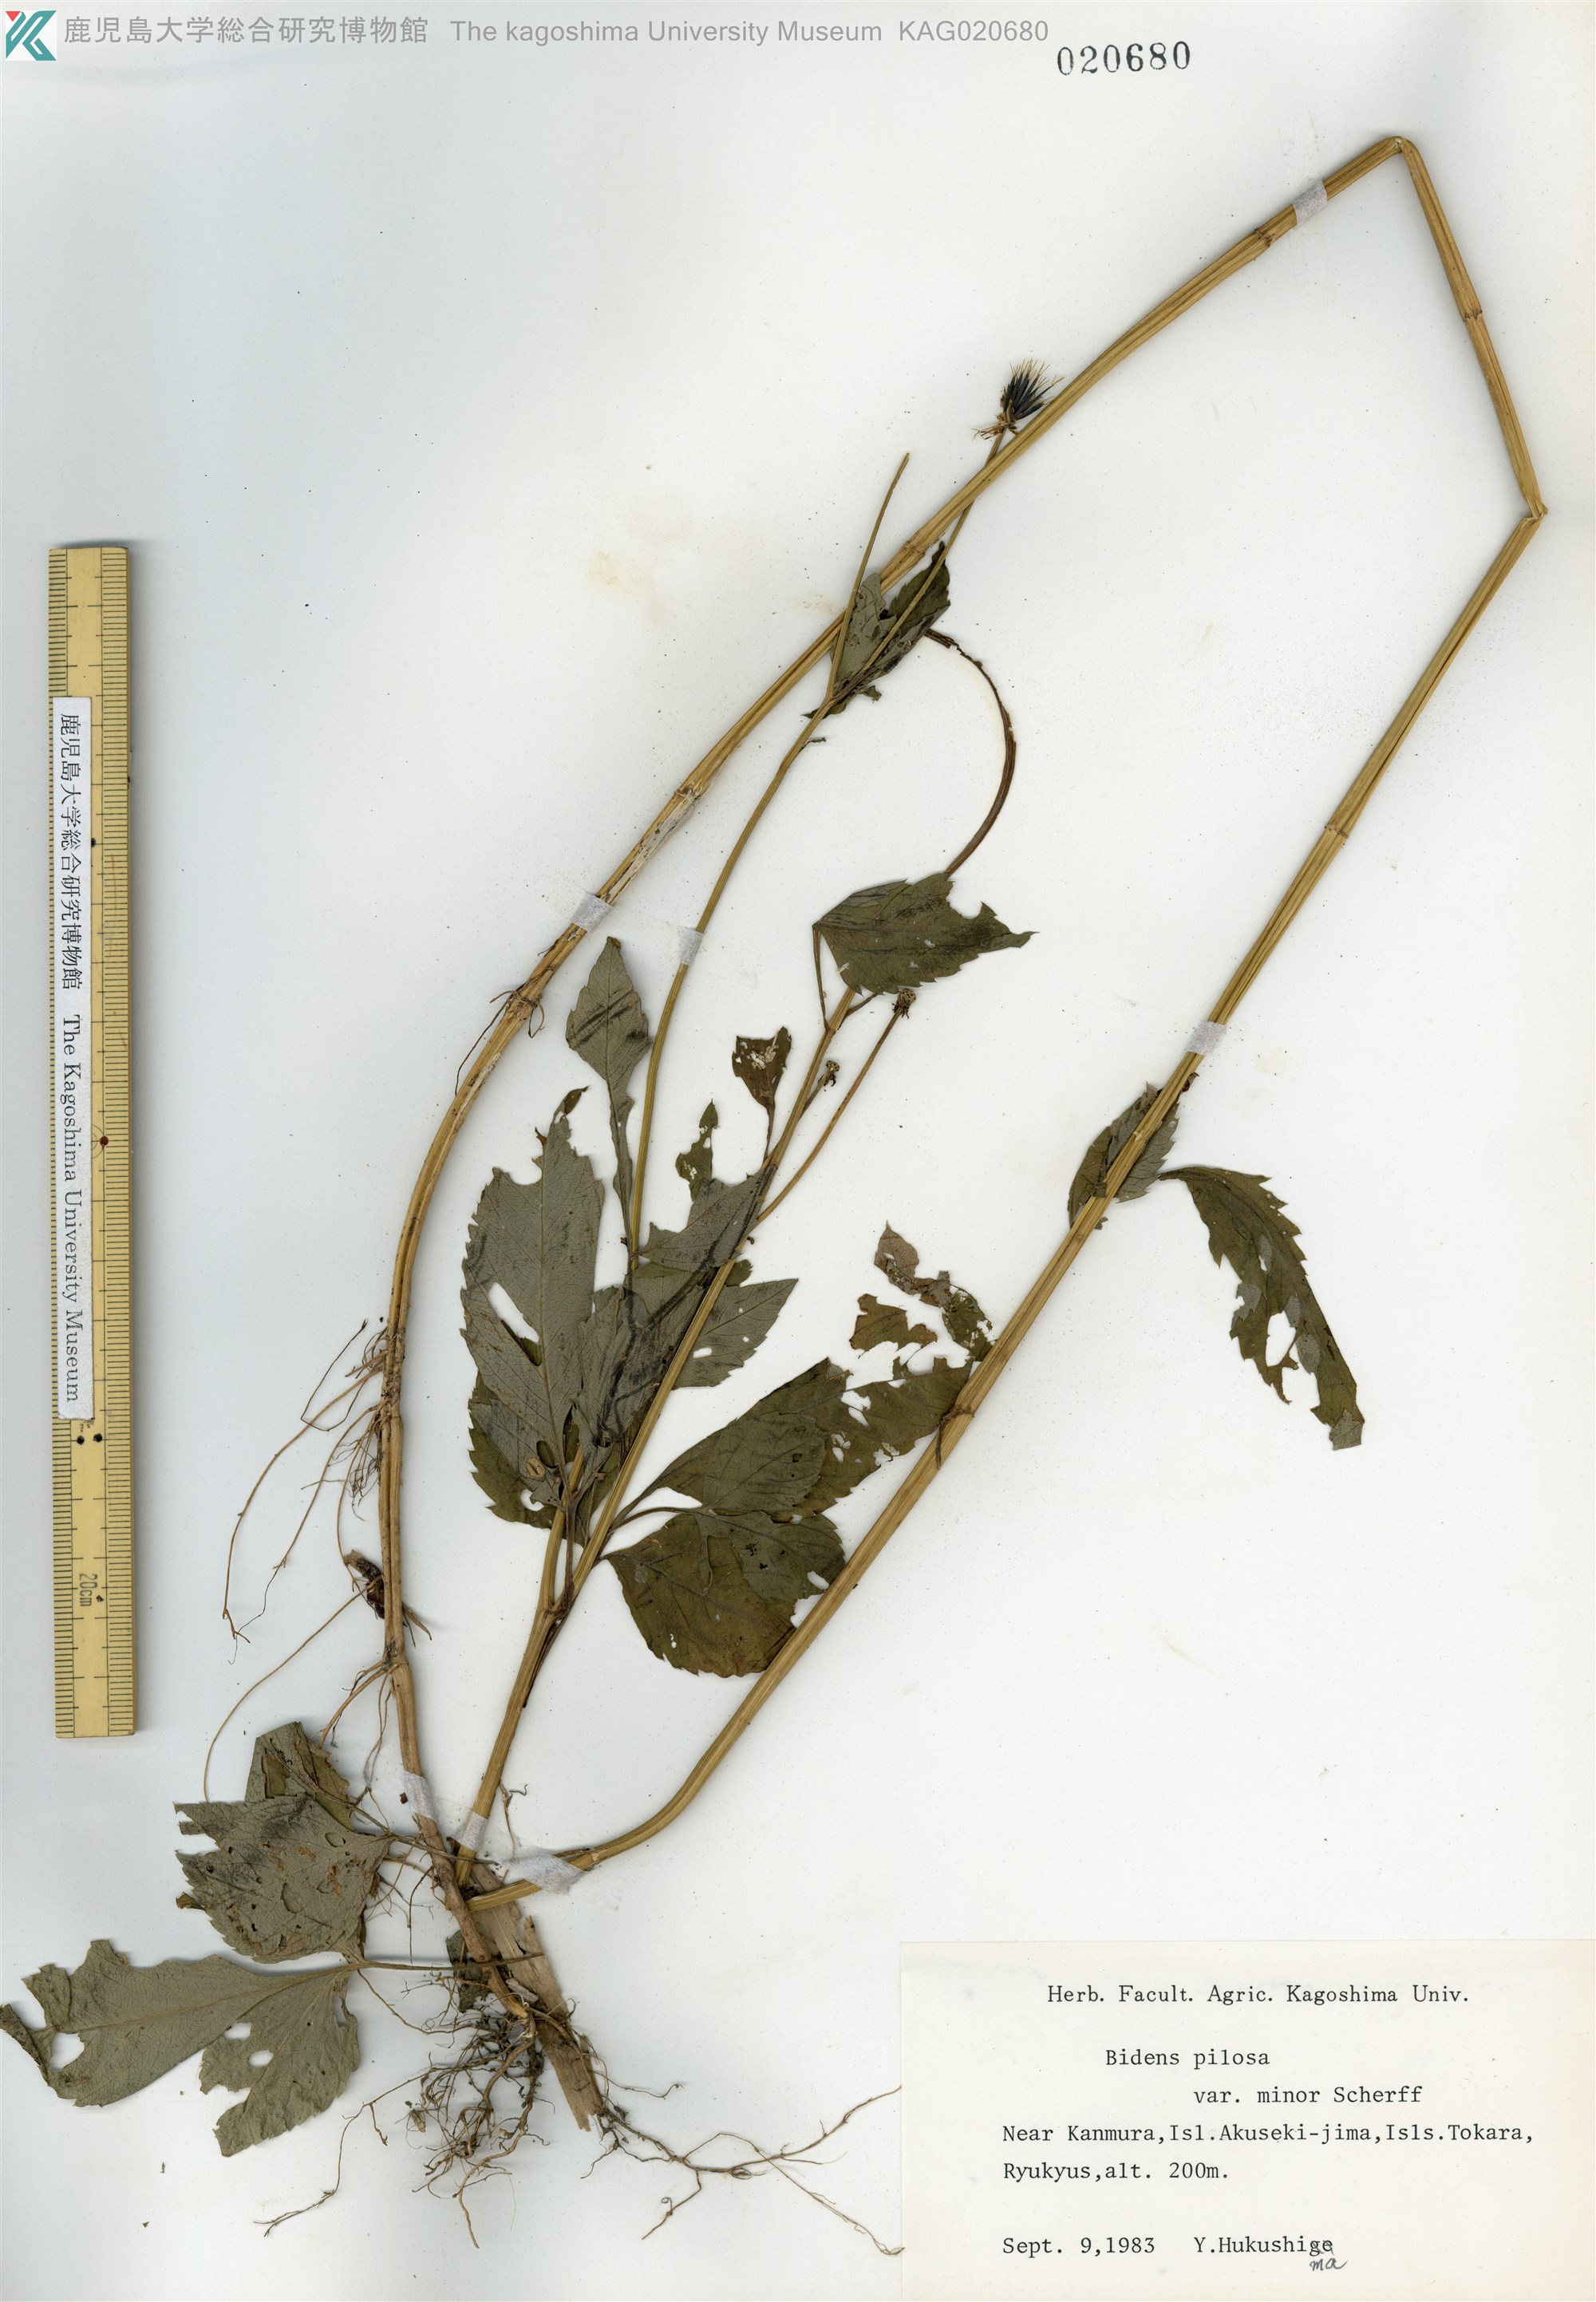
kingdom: Plantae
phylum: Tracheophyta
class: Magnoliopsida
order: Asterales
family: Asteraceae
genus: Bidens
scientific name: Bidens pilosa
